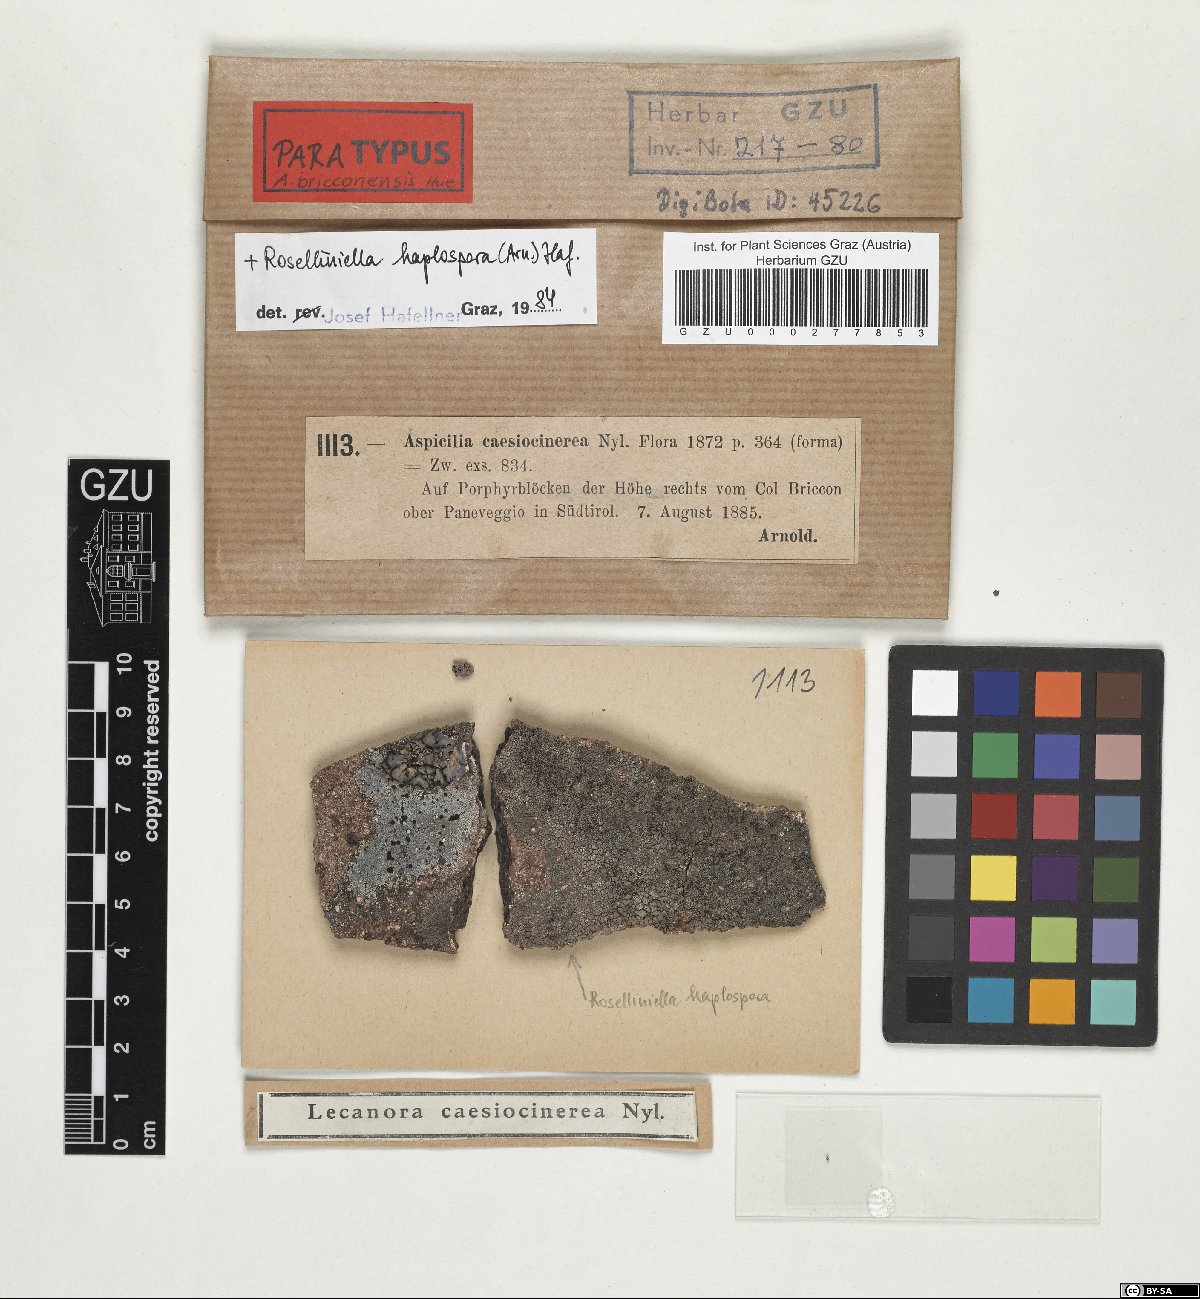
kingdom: Fungi
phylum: Ascomycota
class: Lecanoromycetes
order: Pertusariales
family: Megasporaceae
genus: Aspicilia
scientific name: Aspicilia bricconensis
